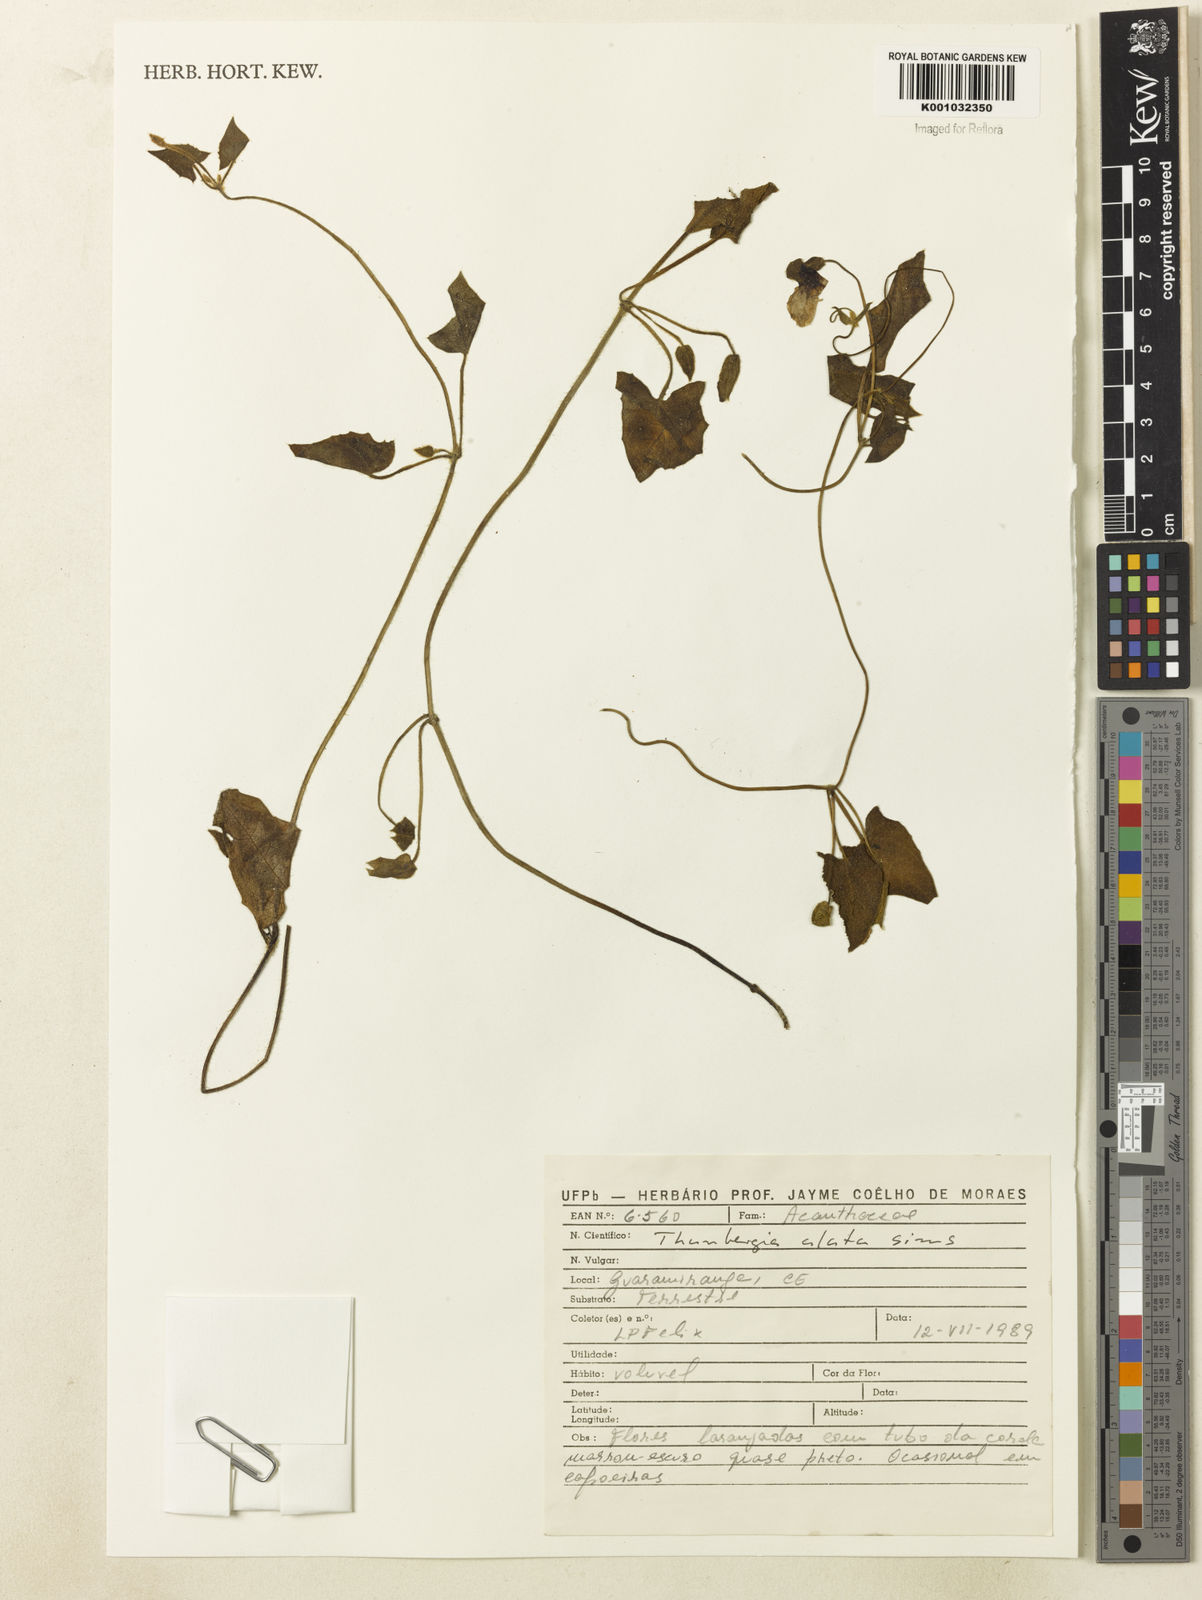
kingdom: Plantae
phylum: Tracheophyta
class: Magnoliopsida
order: Lamiales
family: Acanthaceae
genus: Thunbergia
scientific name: Thunbergia alata
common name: Blackeyed susan vine
